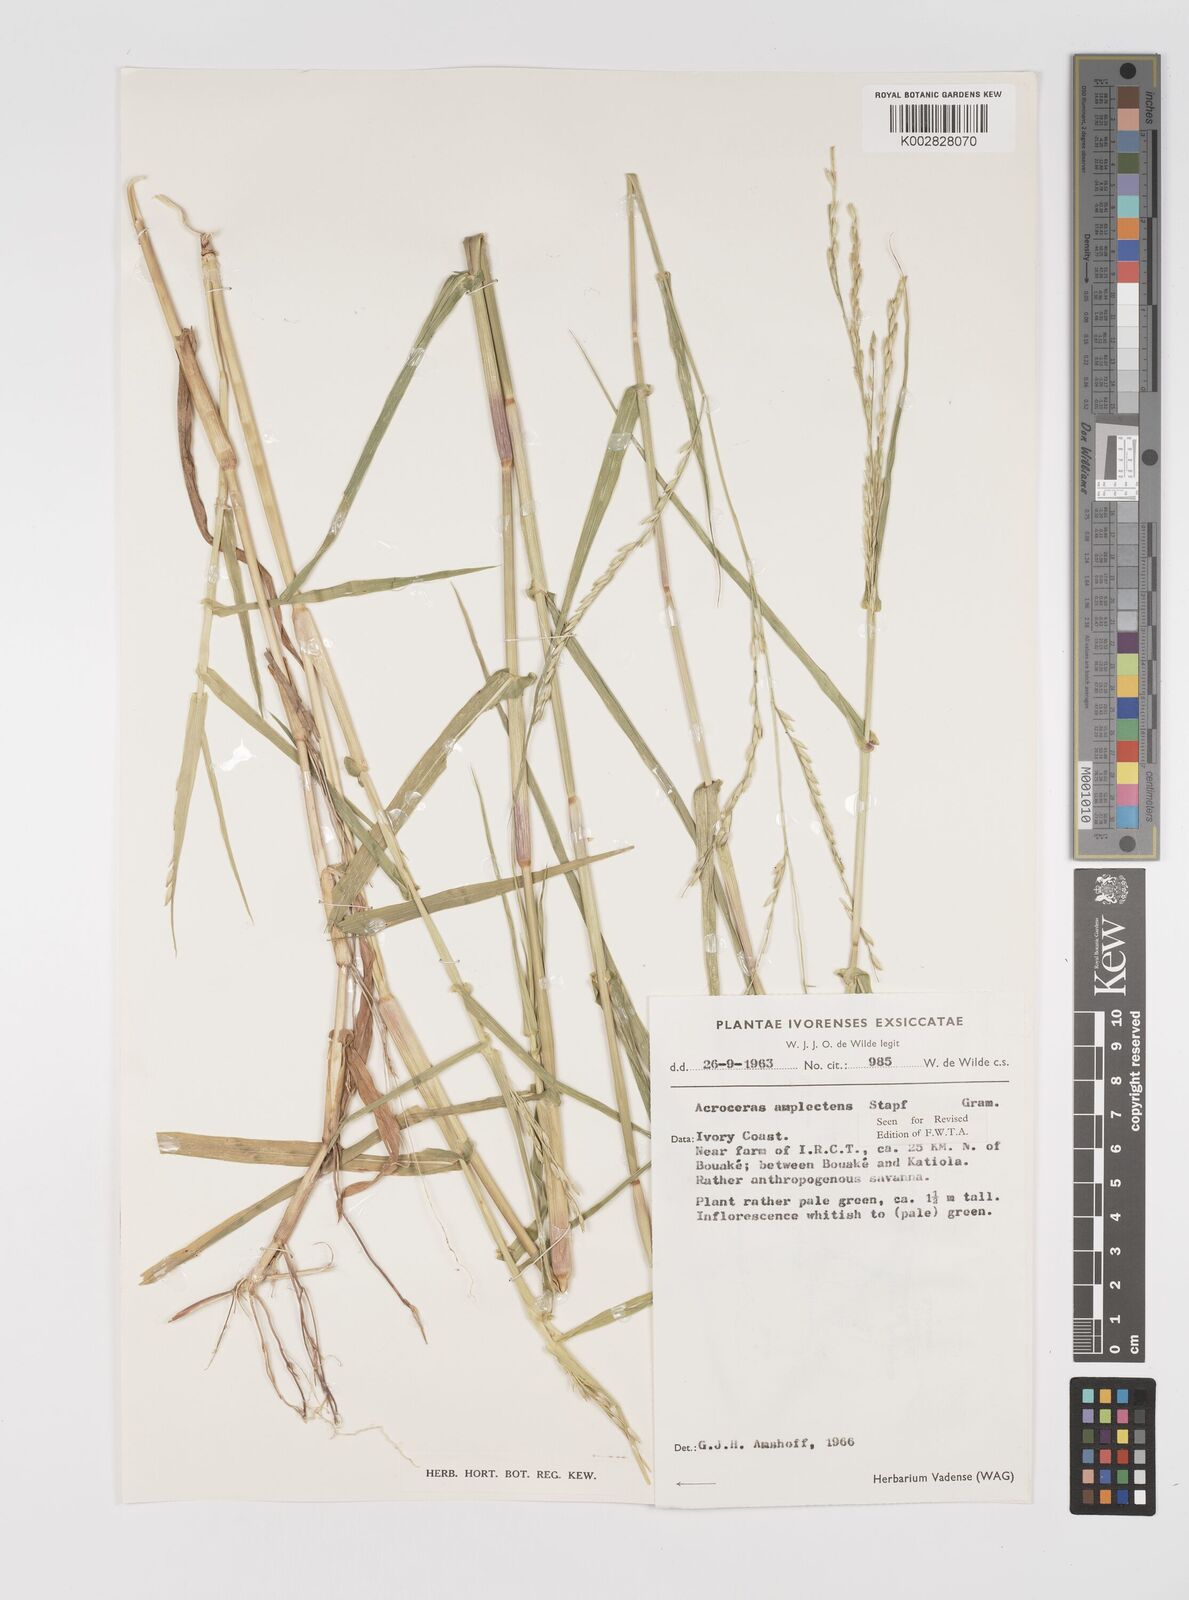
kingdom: Plantae
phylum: Tracheophyta
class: Liliopsida
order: Poales
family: Poaceae
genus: Acroceras
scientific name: Acroceras amplectens
